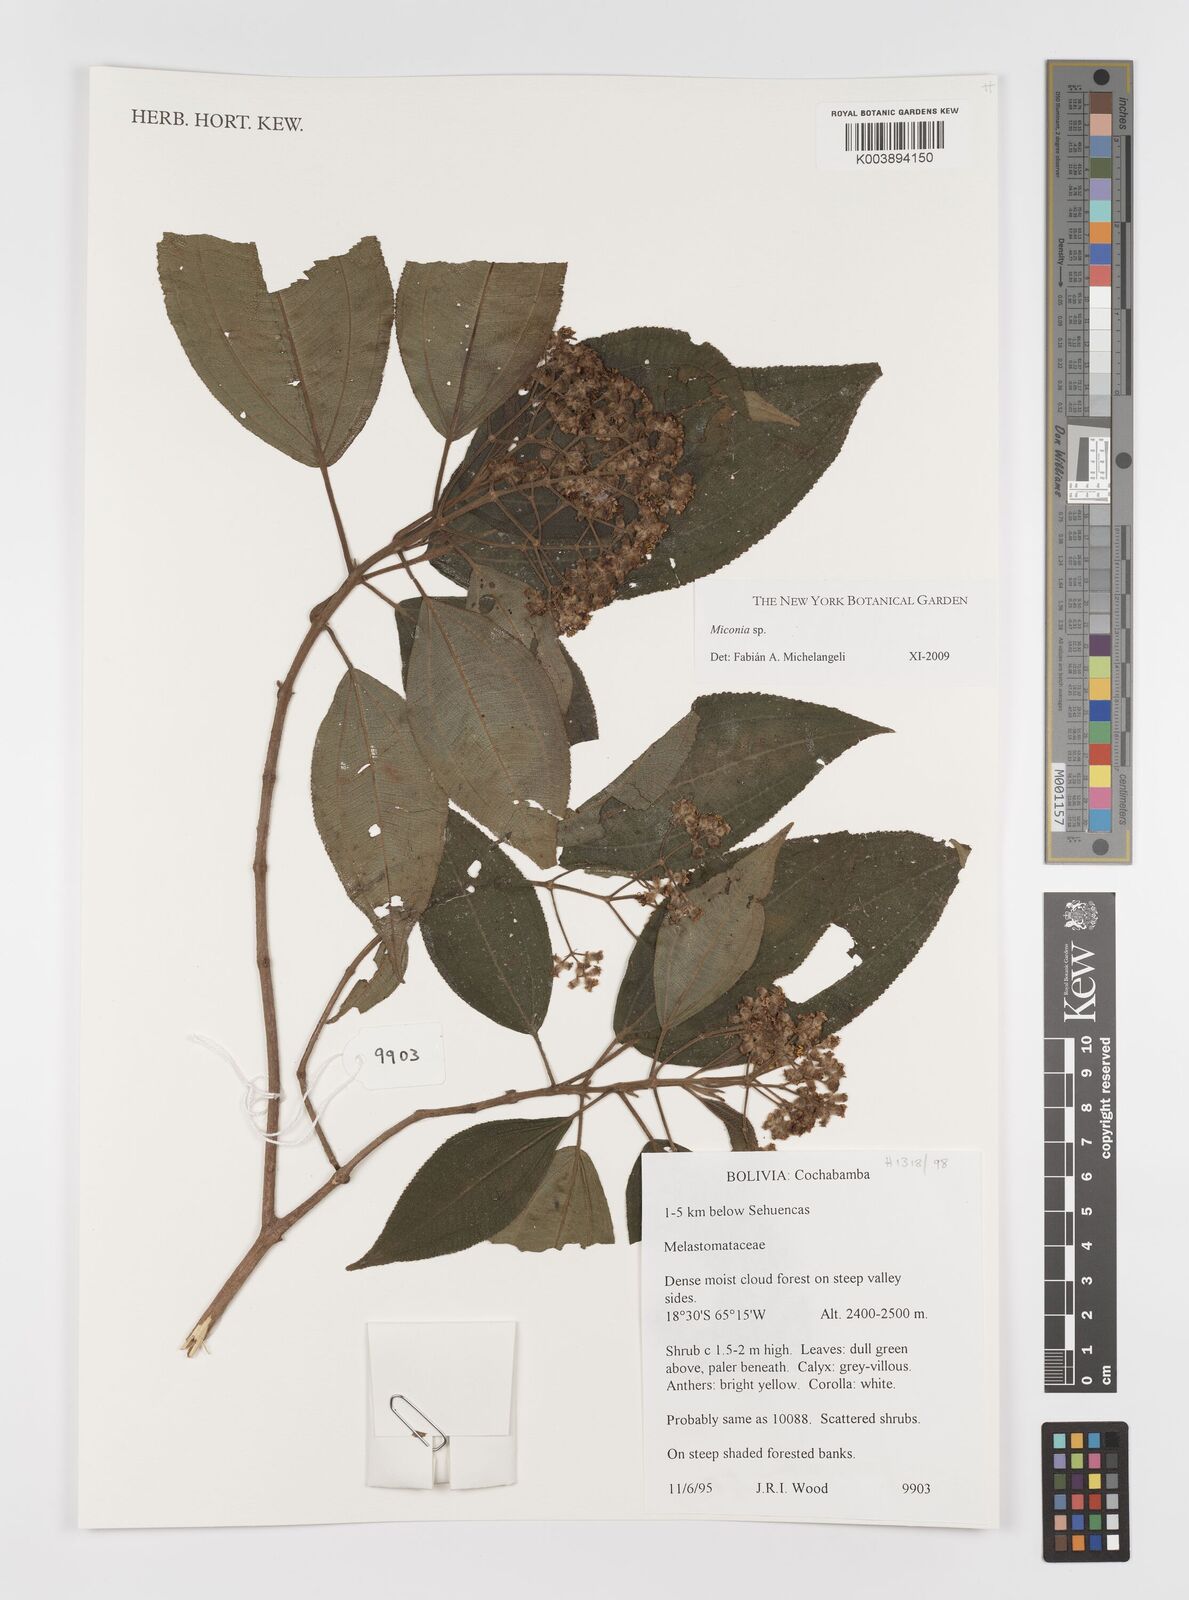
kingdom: Plantae
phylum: Tracheophyta
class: Magnoliopsida
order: Myrtales
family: Melastomataceae
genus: Miconia
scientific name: Miconia
